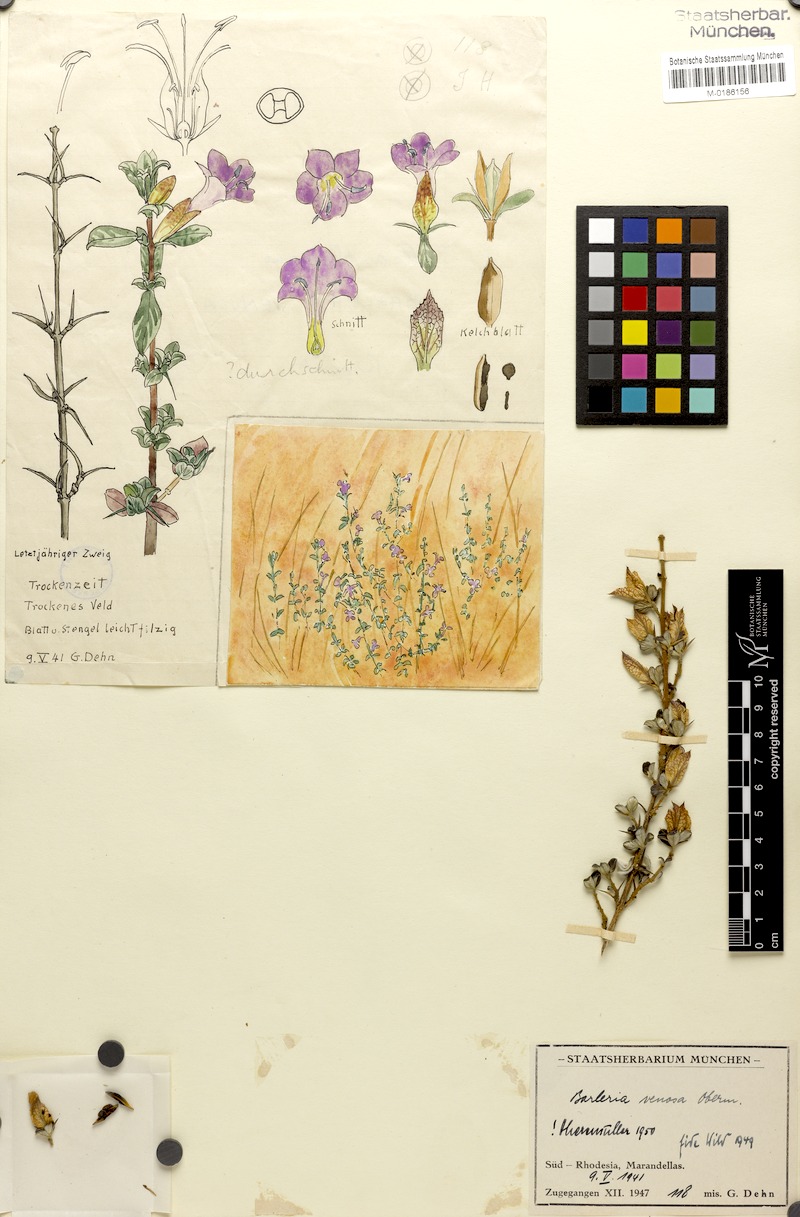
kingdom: Plantae
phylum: Tracheophyta
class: Magnoliopsida
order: Lamiales
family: Acanthaceae
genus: Barleria
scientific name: Barleria crassa
